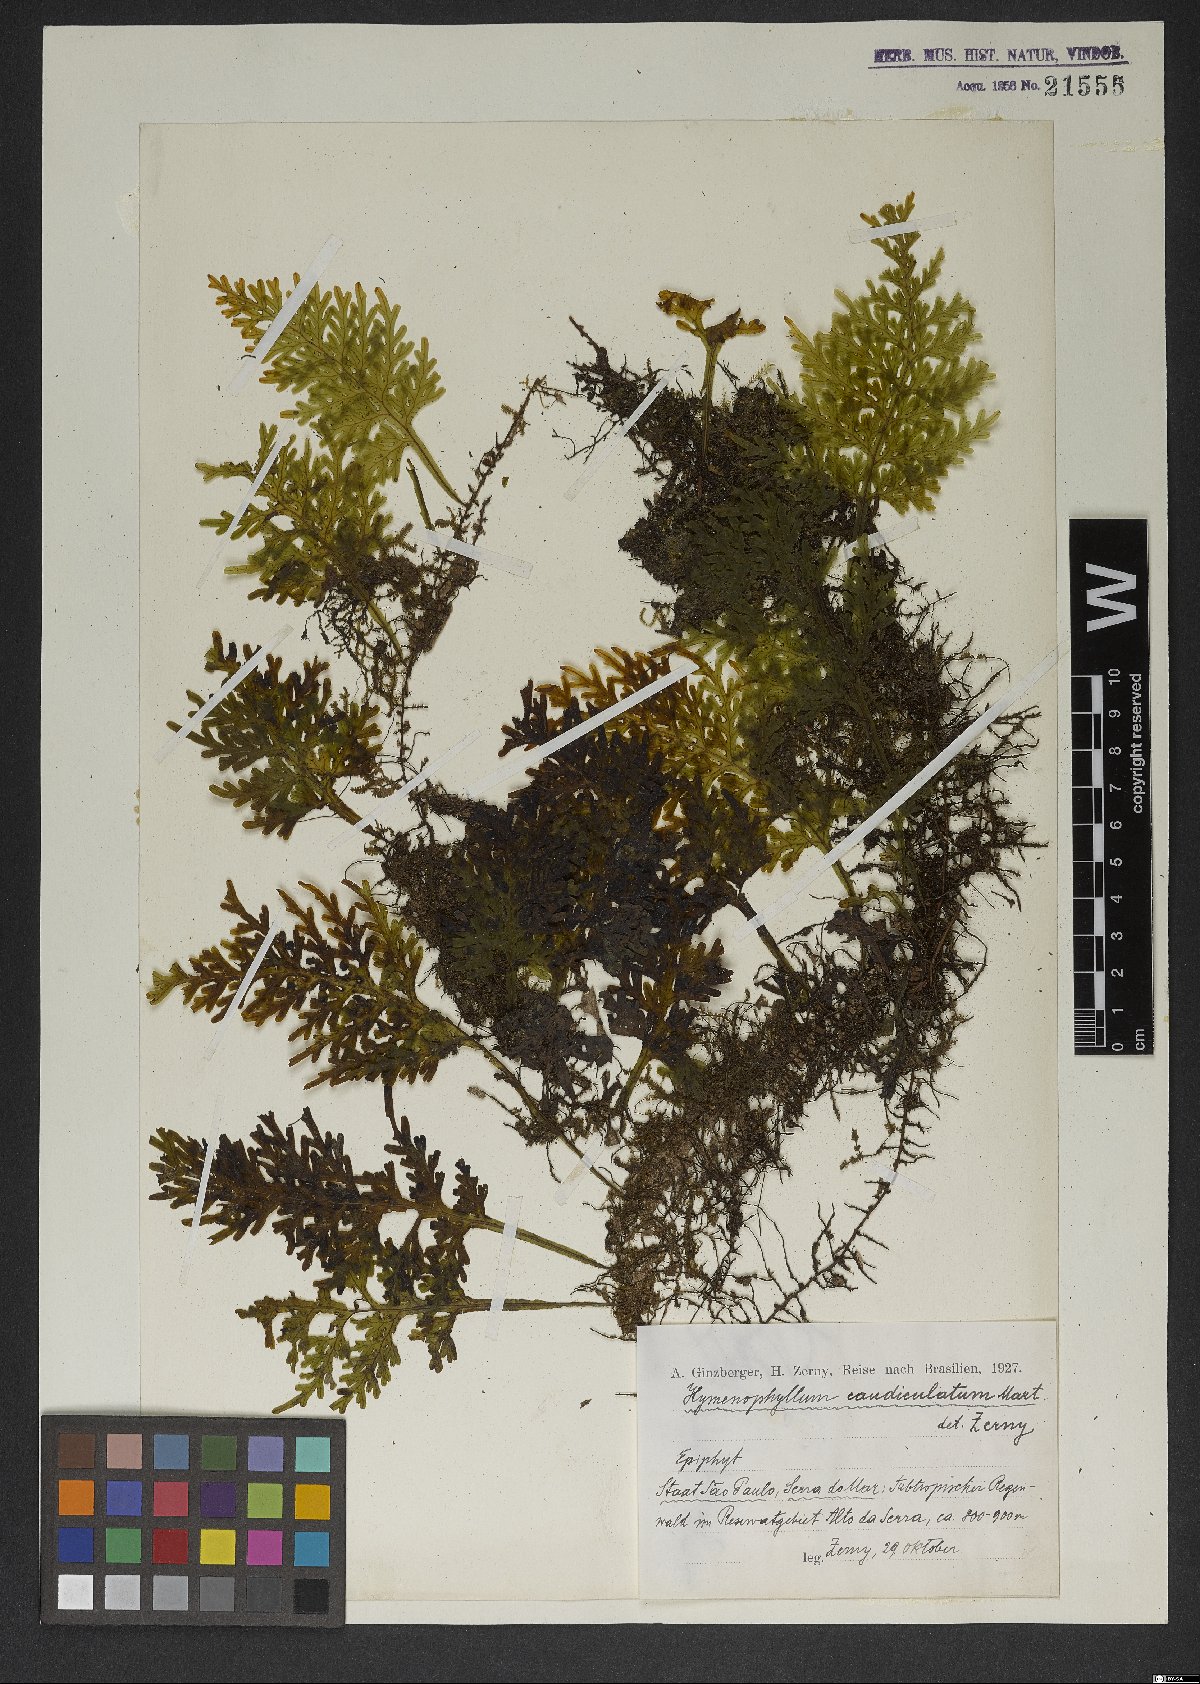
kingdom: Plantae
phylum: Tracheophyta
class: Polypodiopsida
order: Hymenophyllales
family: Hymenophyllaceae
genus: Hymenophyllum
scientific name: Hymenophyllum caudiculatum
